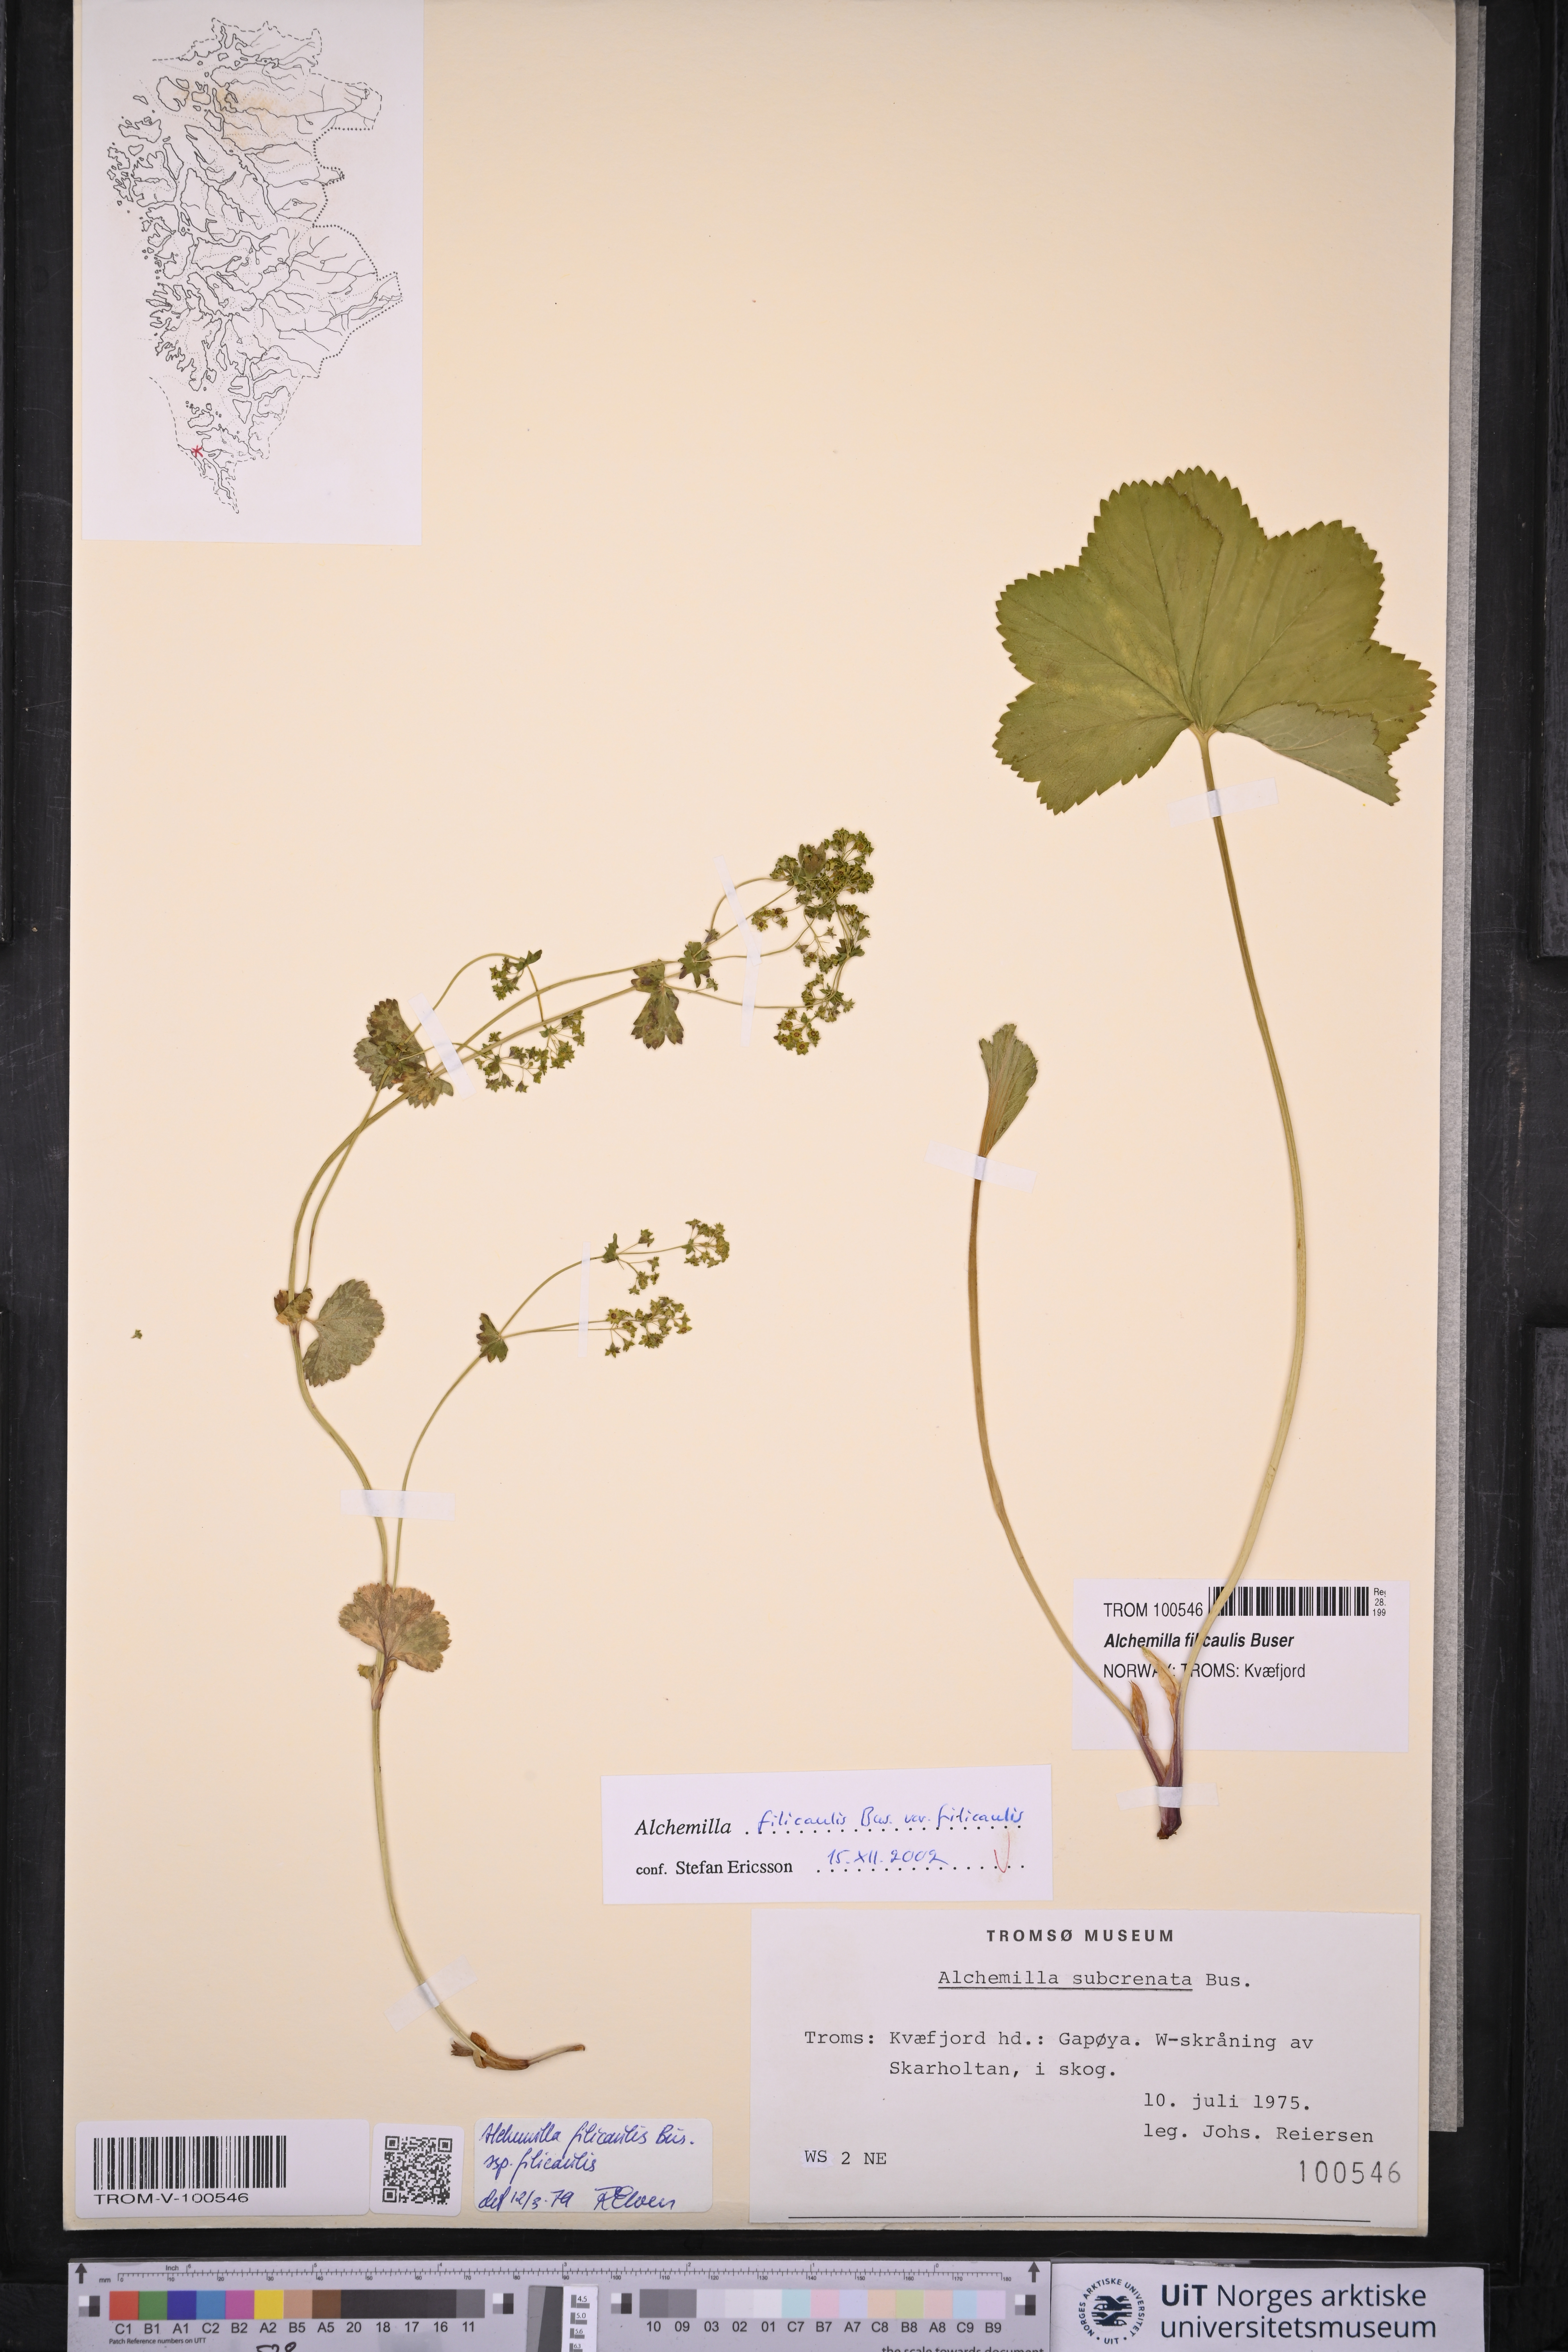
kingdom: Plantae
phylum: Tracheophyta
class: Magnoliopsida
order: Rosales
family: Rosaceae
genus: Alchemilla
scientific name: Alchemilla filicaulis
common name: Hairy lady's-mantle
